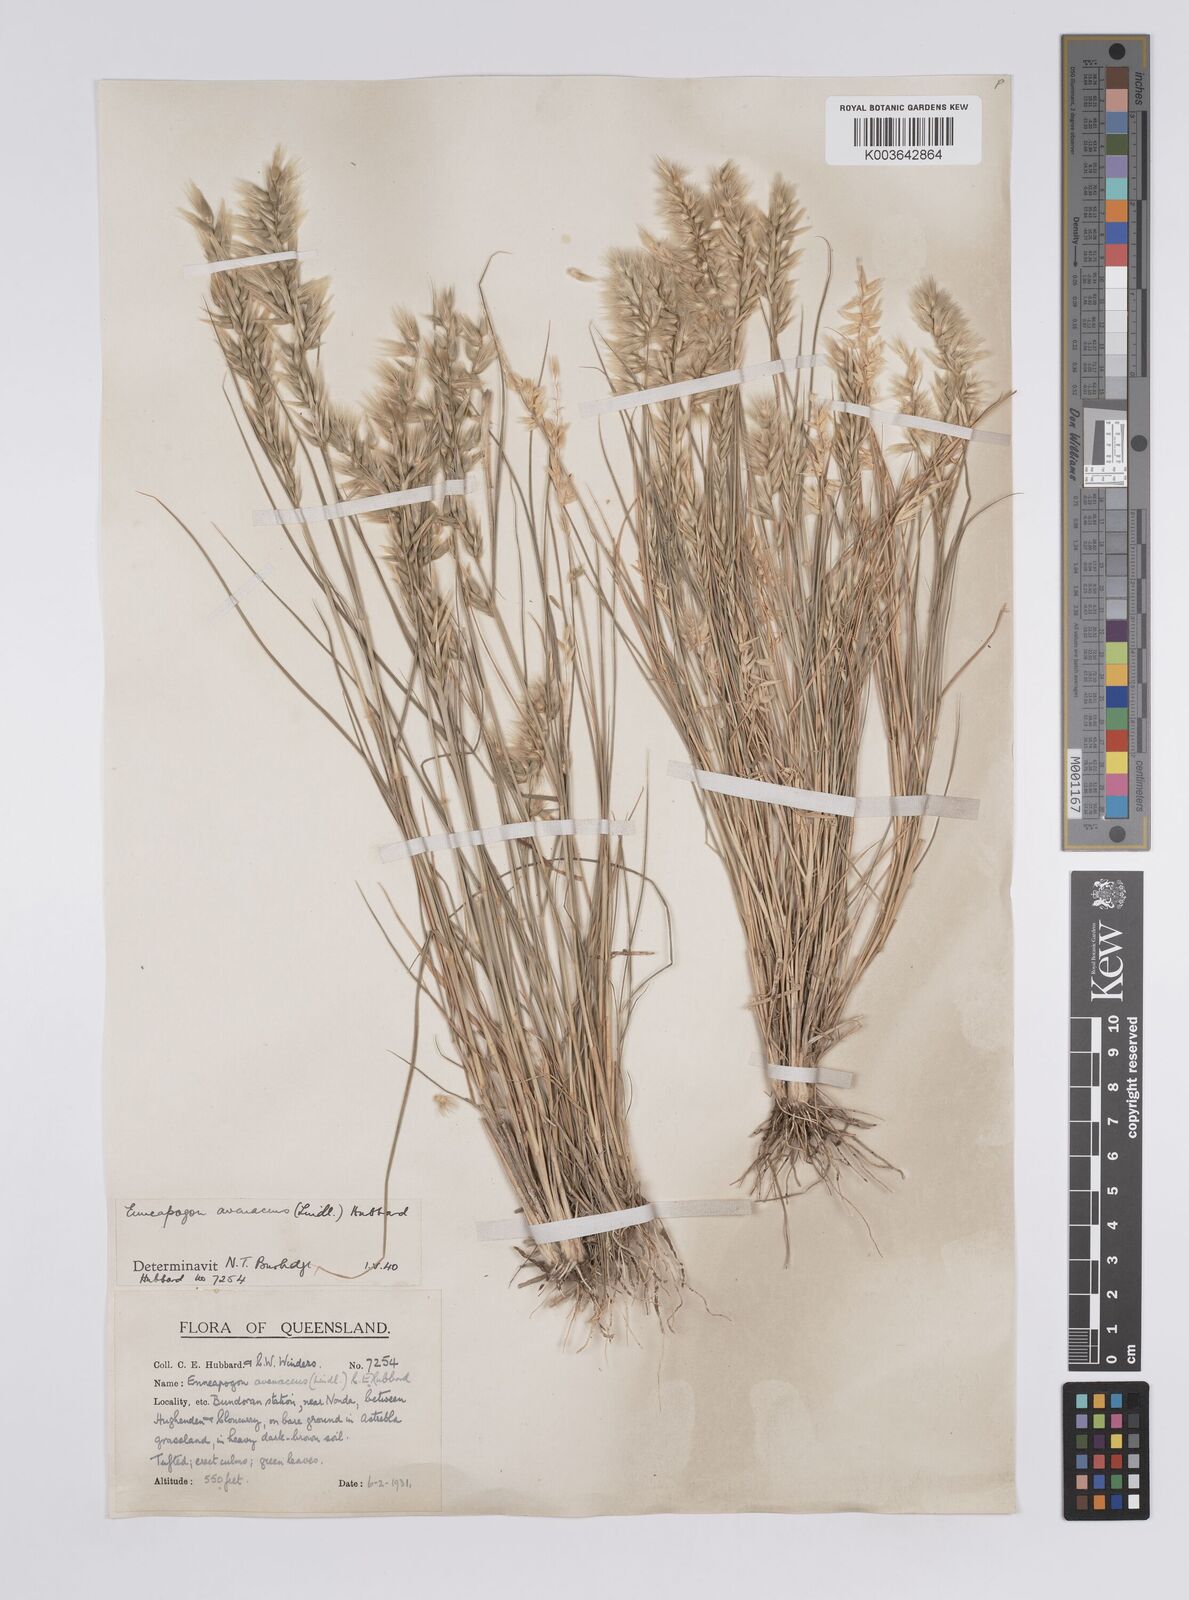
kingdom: Plantae
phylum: Tracheophyta
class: Liliopsida
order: Poales
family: Poaceae
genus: Enneapogon
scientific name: Enneapogon avenaceus
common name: Hairy oat grass
